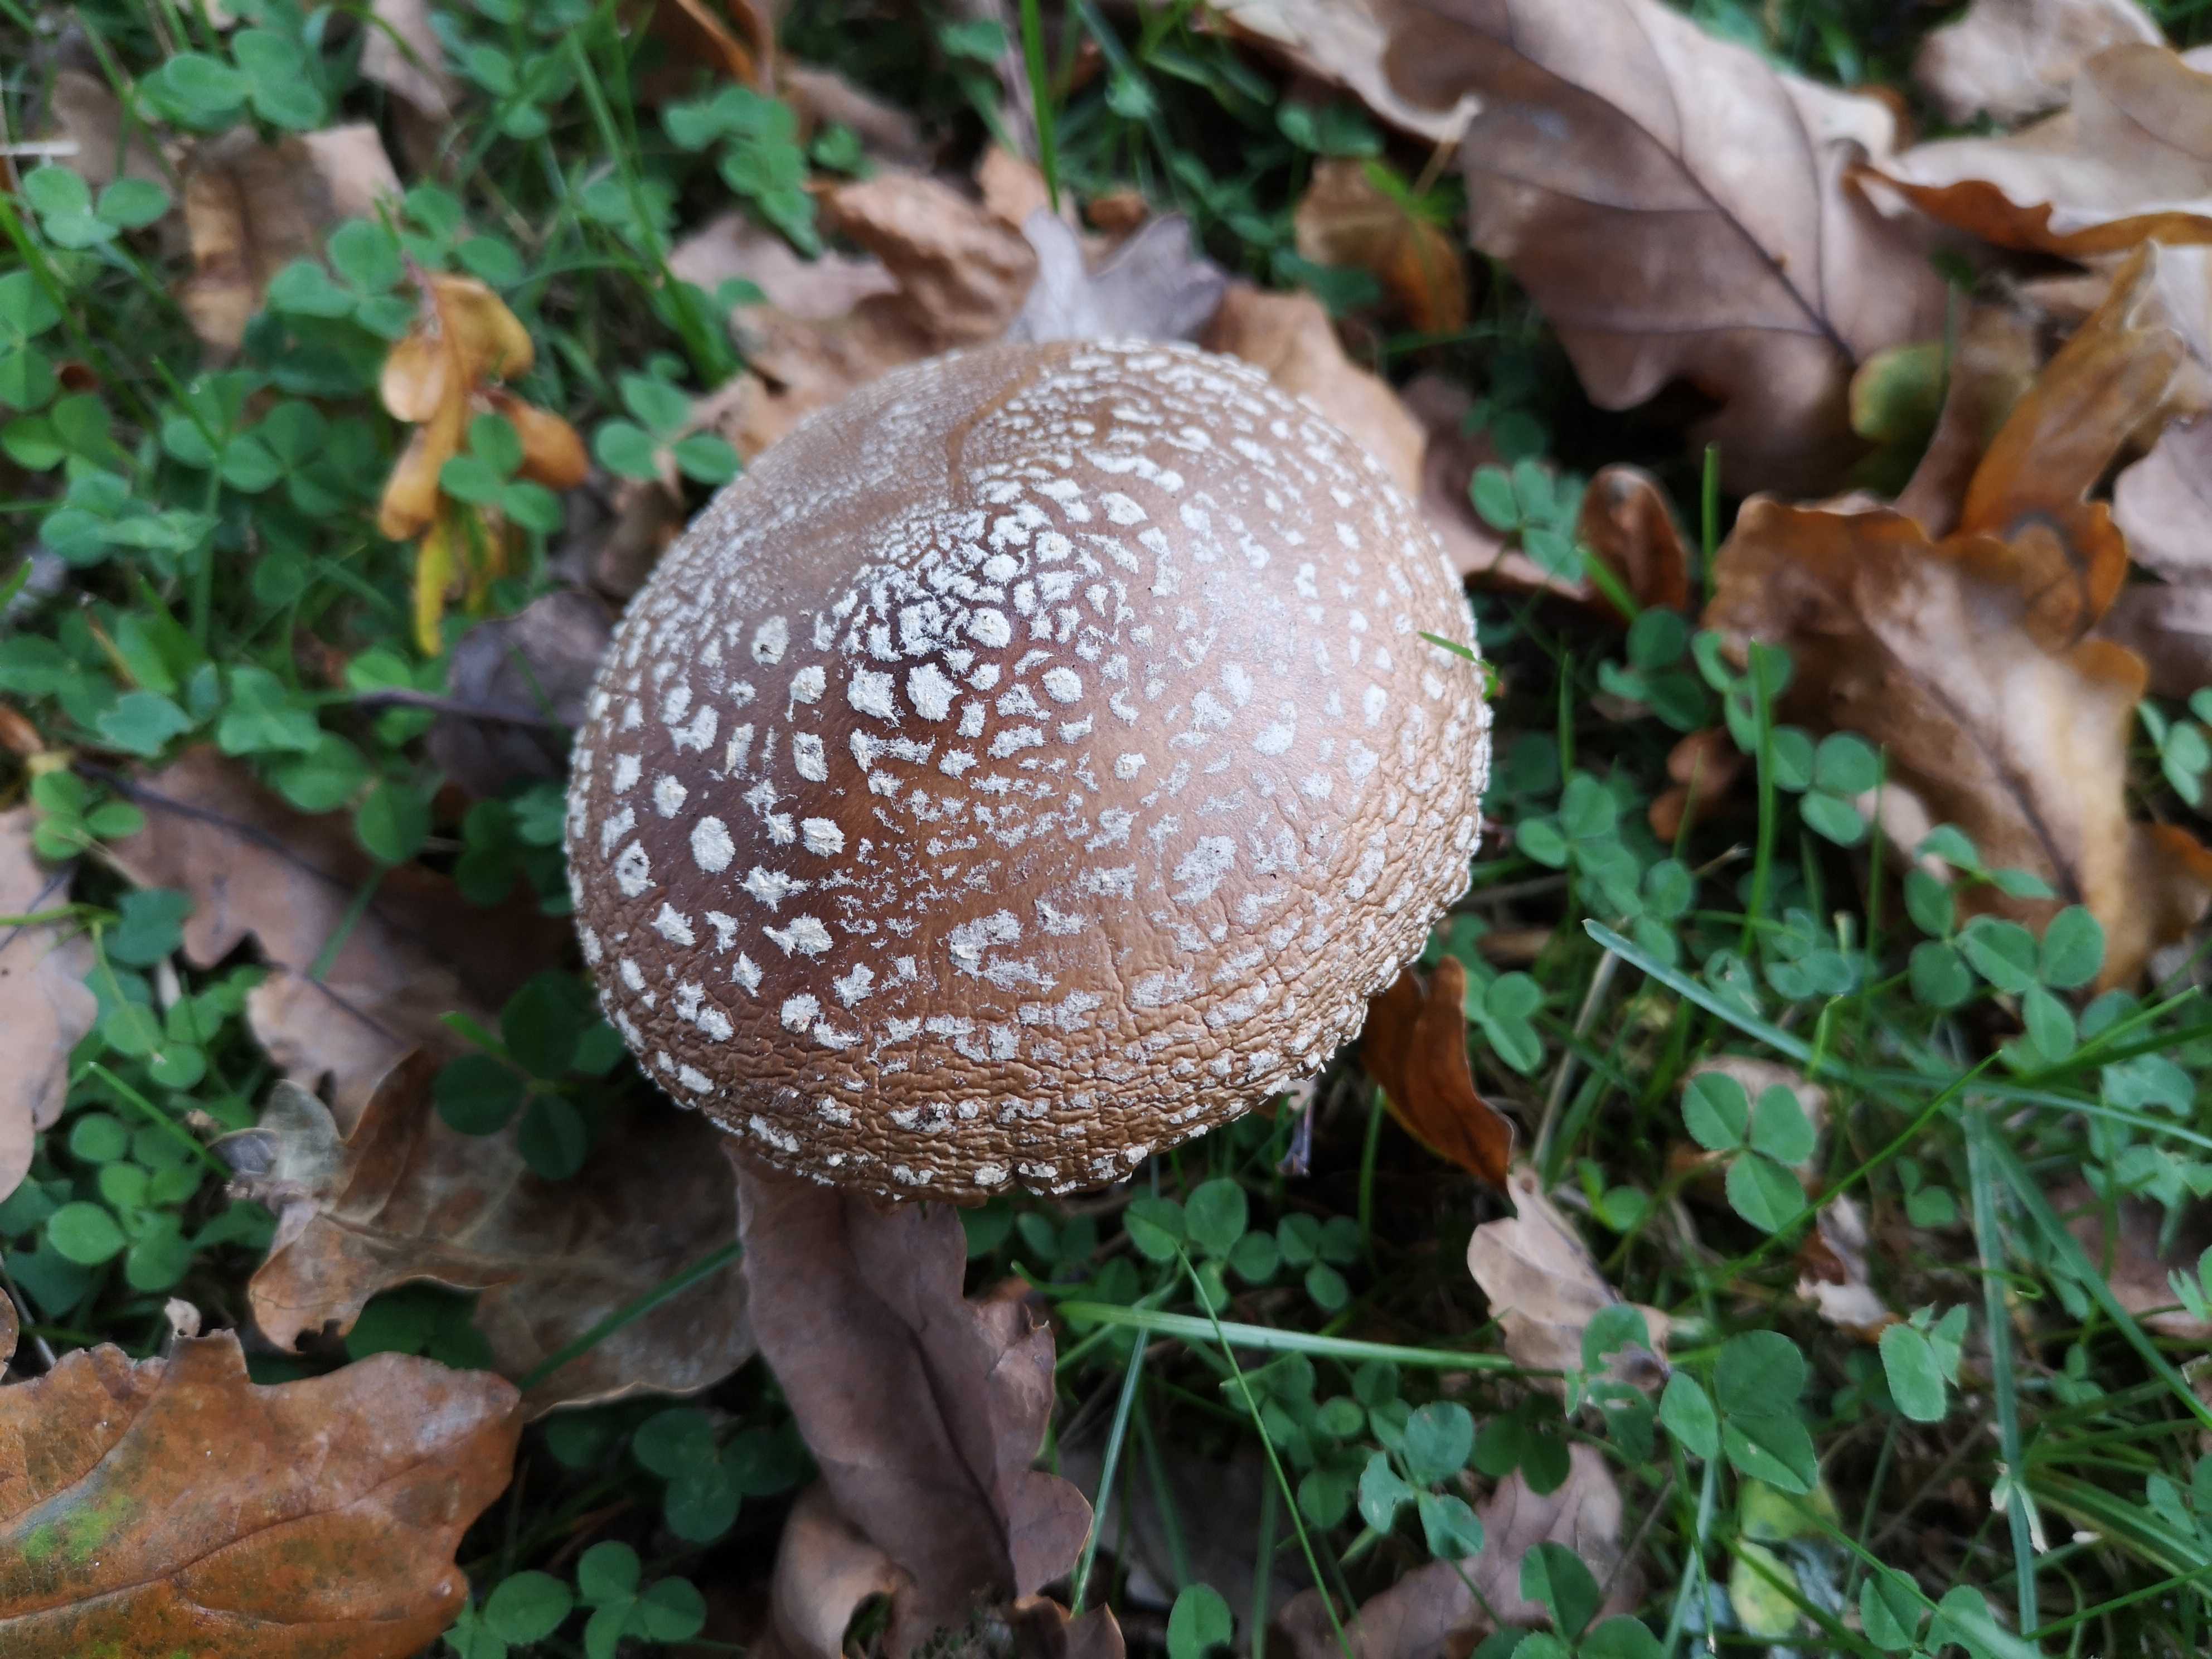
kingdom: Fungi
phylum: Basidiomycota
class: Agaricomycetes
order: Agaricales
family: Amanitaceae
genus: Amanita
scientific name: Amanita pantherina
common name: panter-fluesvamp
